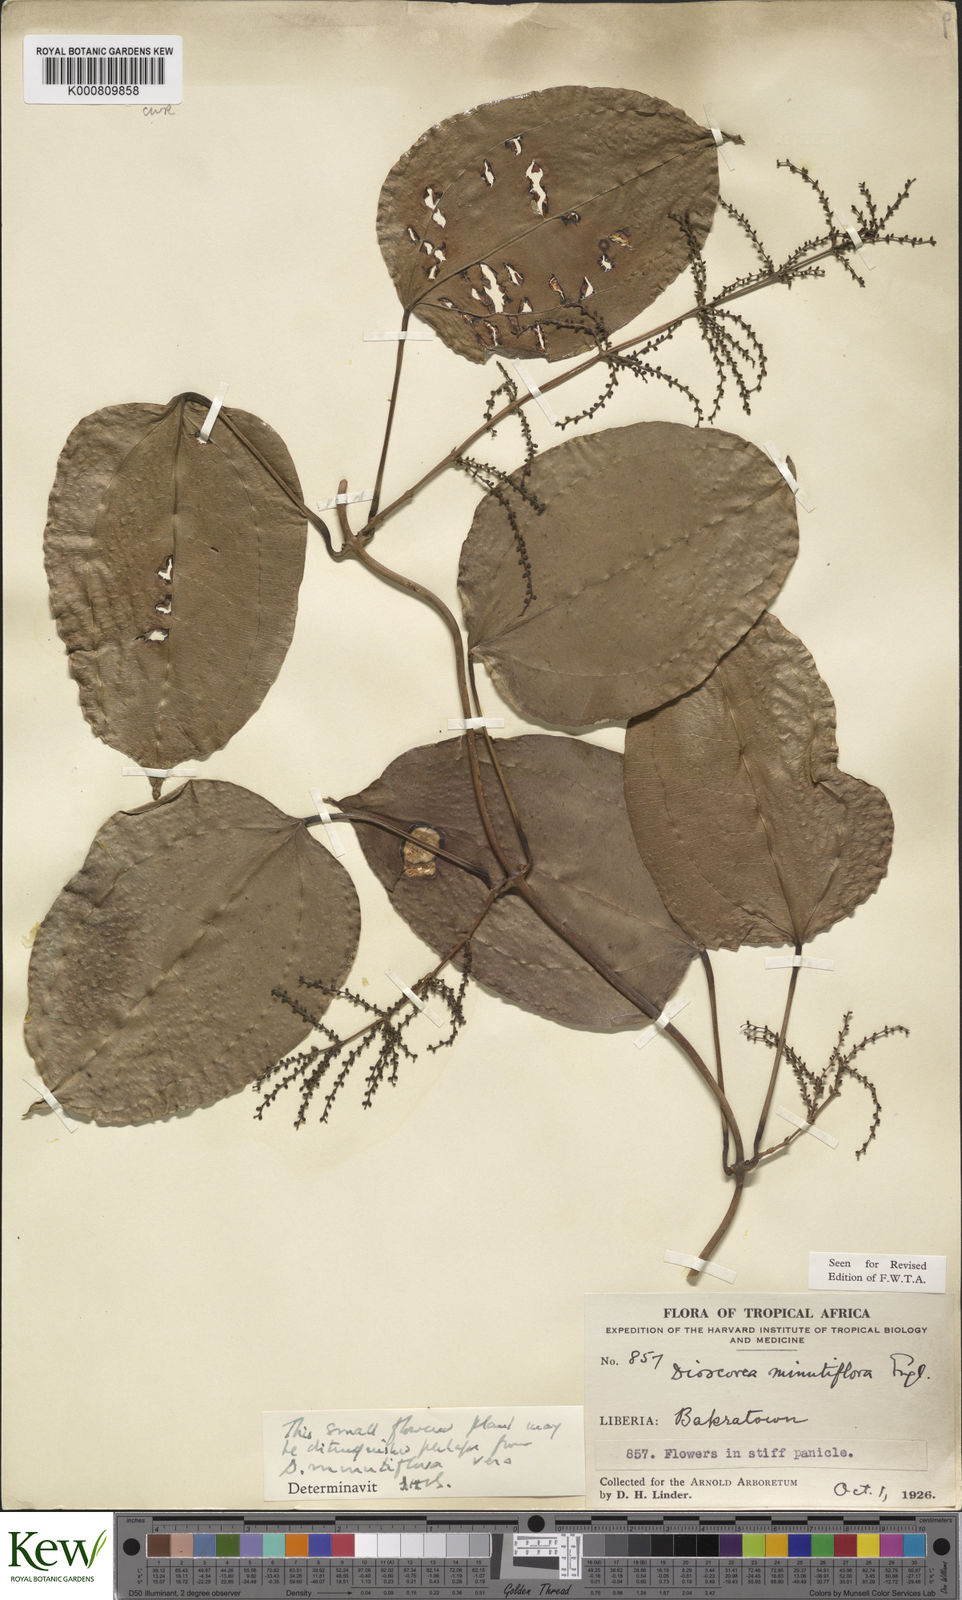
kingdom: Plantae
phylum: Tracheophyta
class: Liliopsida
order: Dioscoreales
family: Dioscoreaceae
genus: Dioscorea
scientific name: Dioscorea minutiflora
